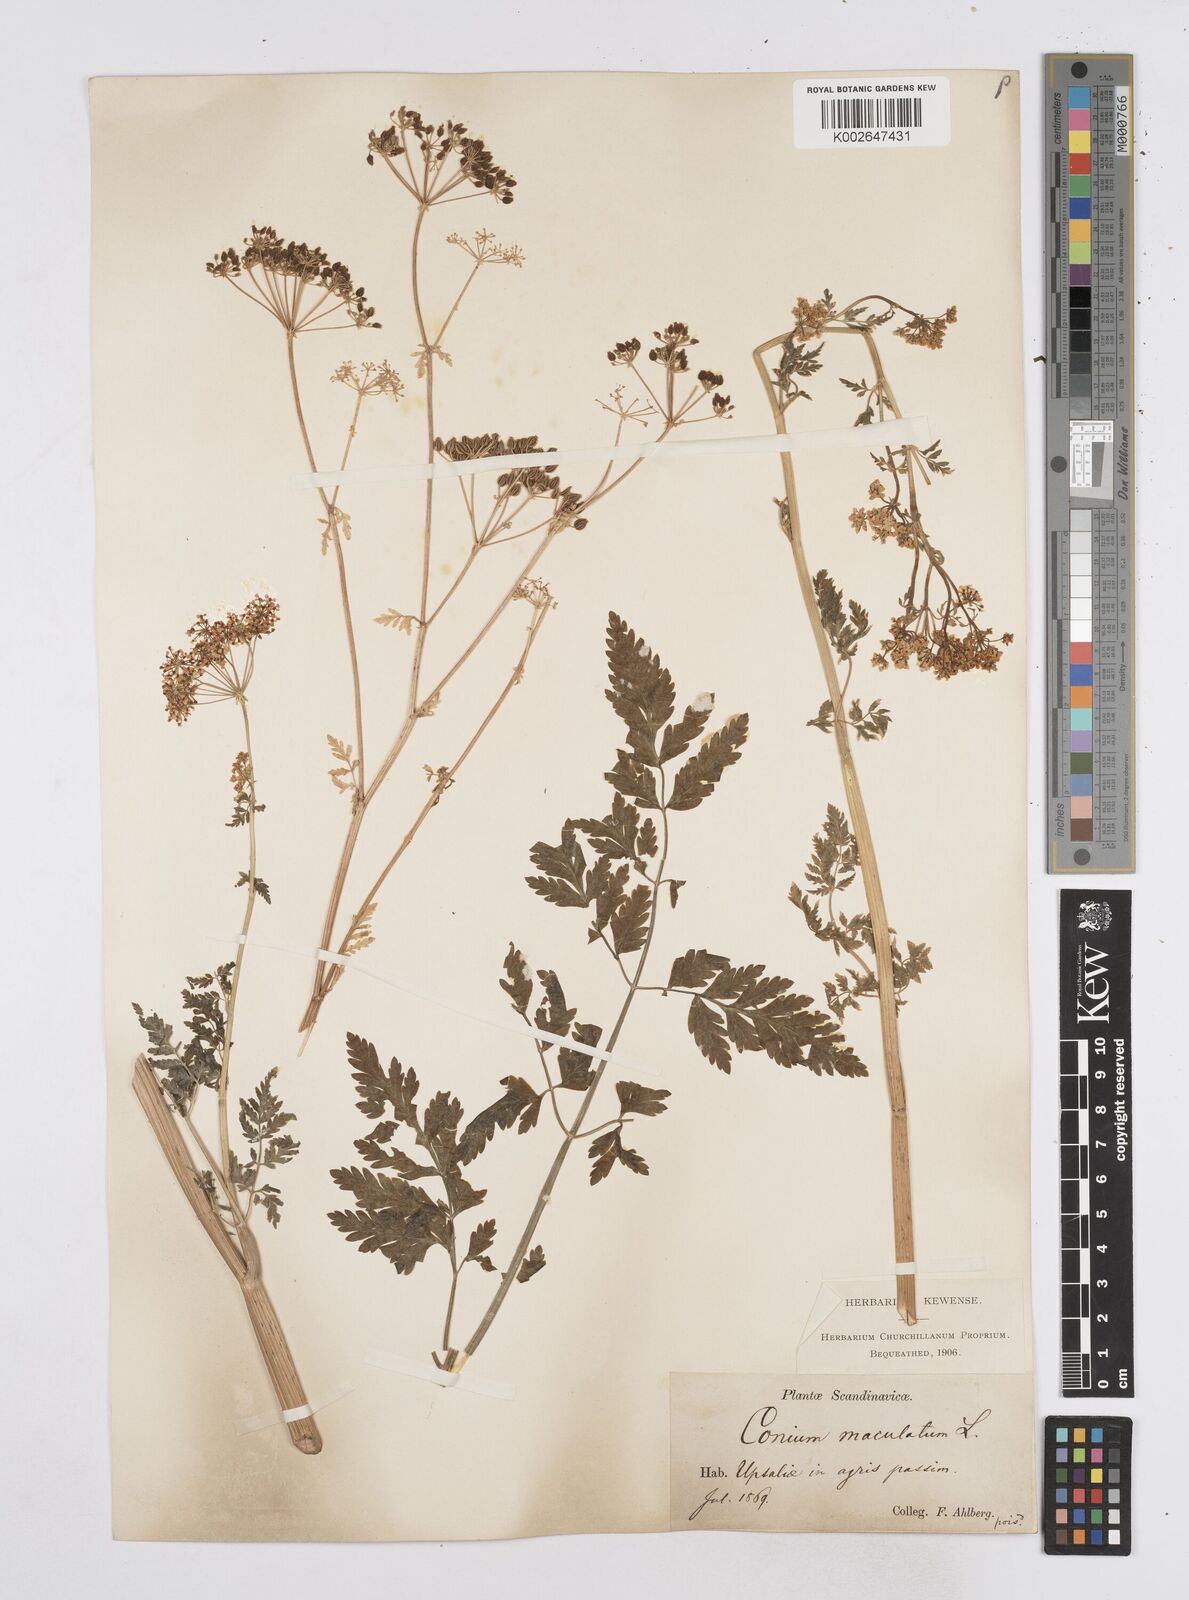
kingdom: Plantae
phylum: Tracheophyta
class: Magnoliopsida
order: Apiales
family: Apiaceae
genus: Conium
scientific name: Conium maculatum
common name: Hemlock
